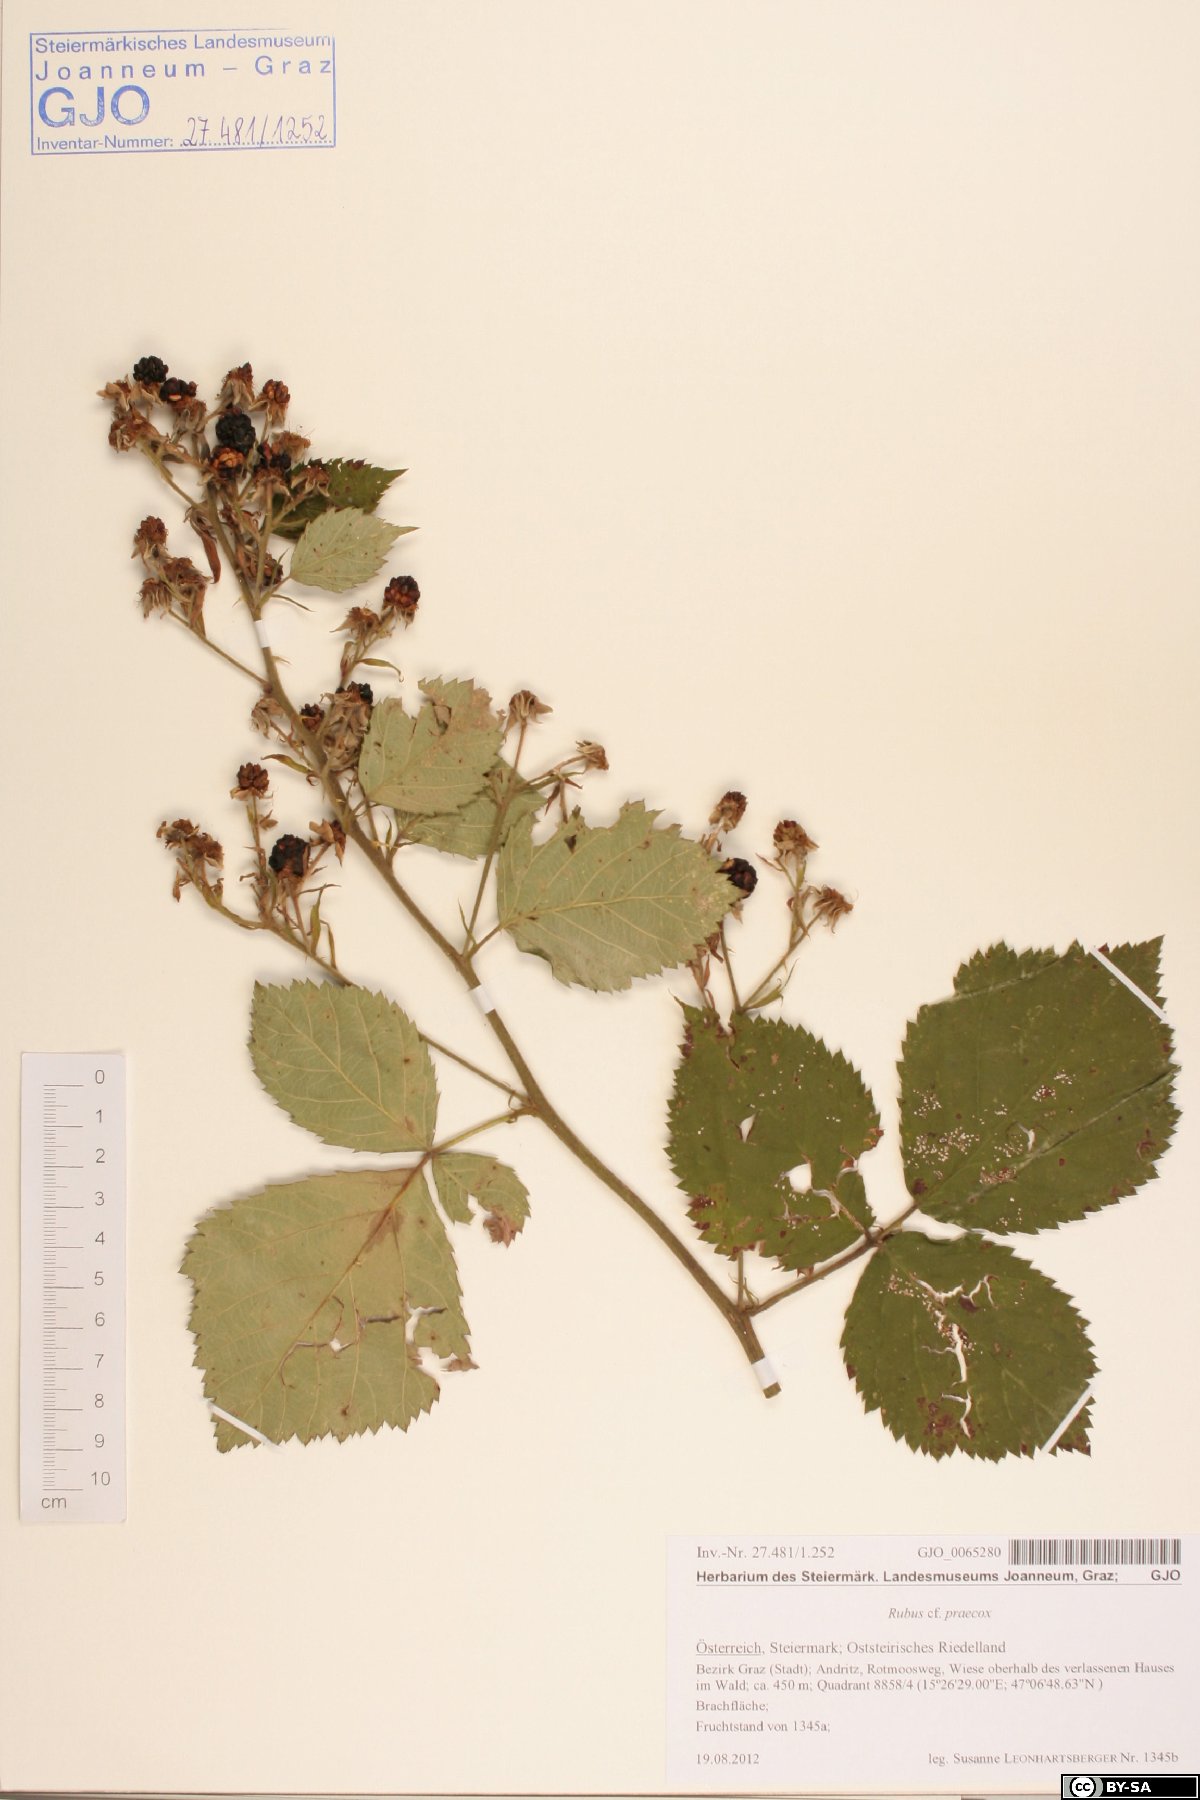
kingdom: Plantae
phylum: Tracheophyta
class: Magnoliopsida
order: Rosales
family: Rosaceae
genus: Rubus
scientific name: Rubus sulcatus
